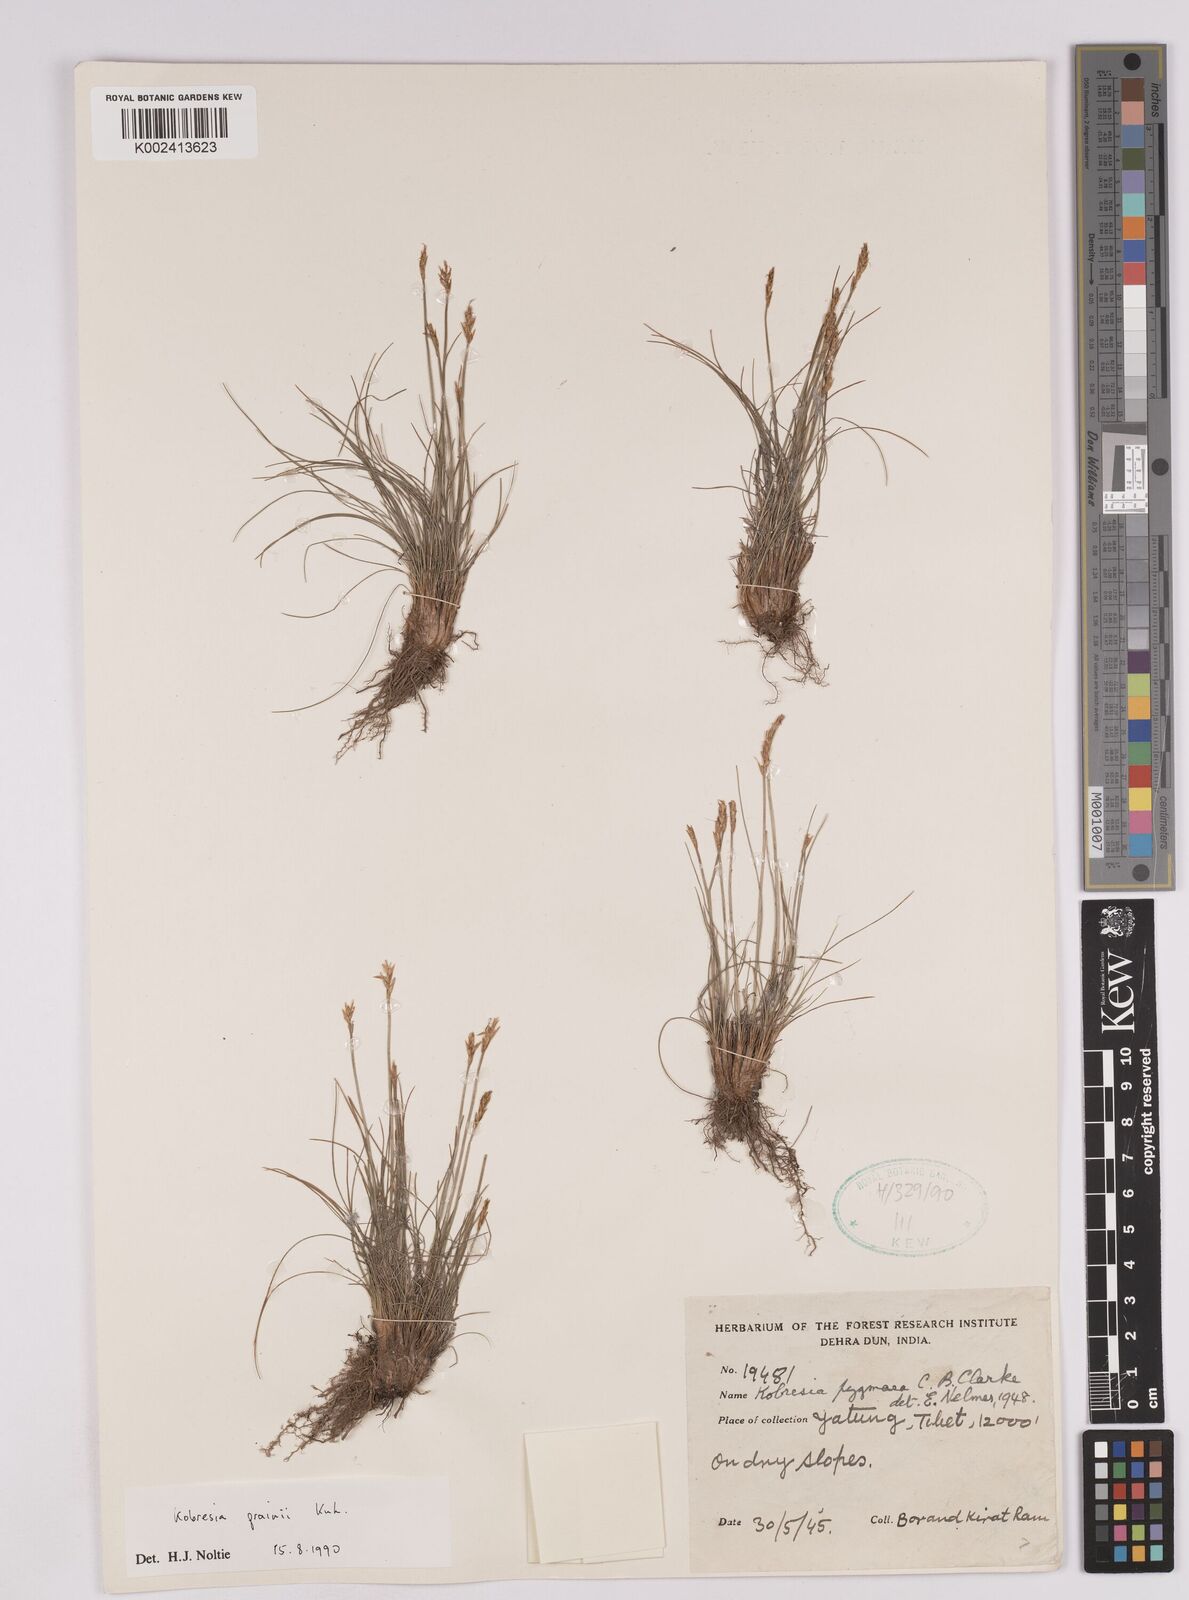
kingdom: Plantae
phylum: Tracheophyta
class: Liliopsida
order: Poales
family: Cyperaceae
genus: Carex
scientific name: Carex bhutanensis
